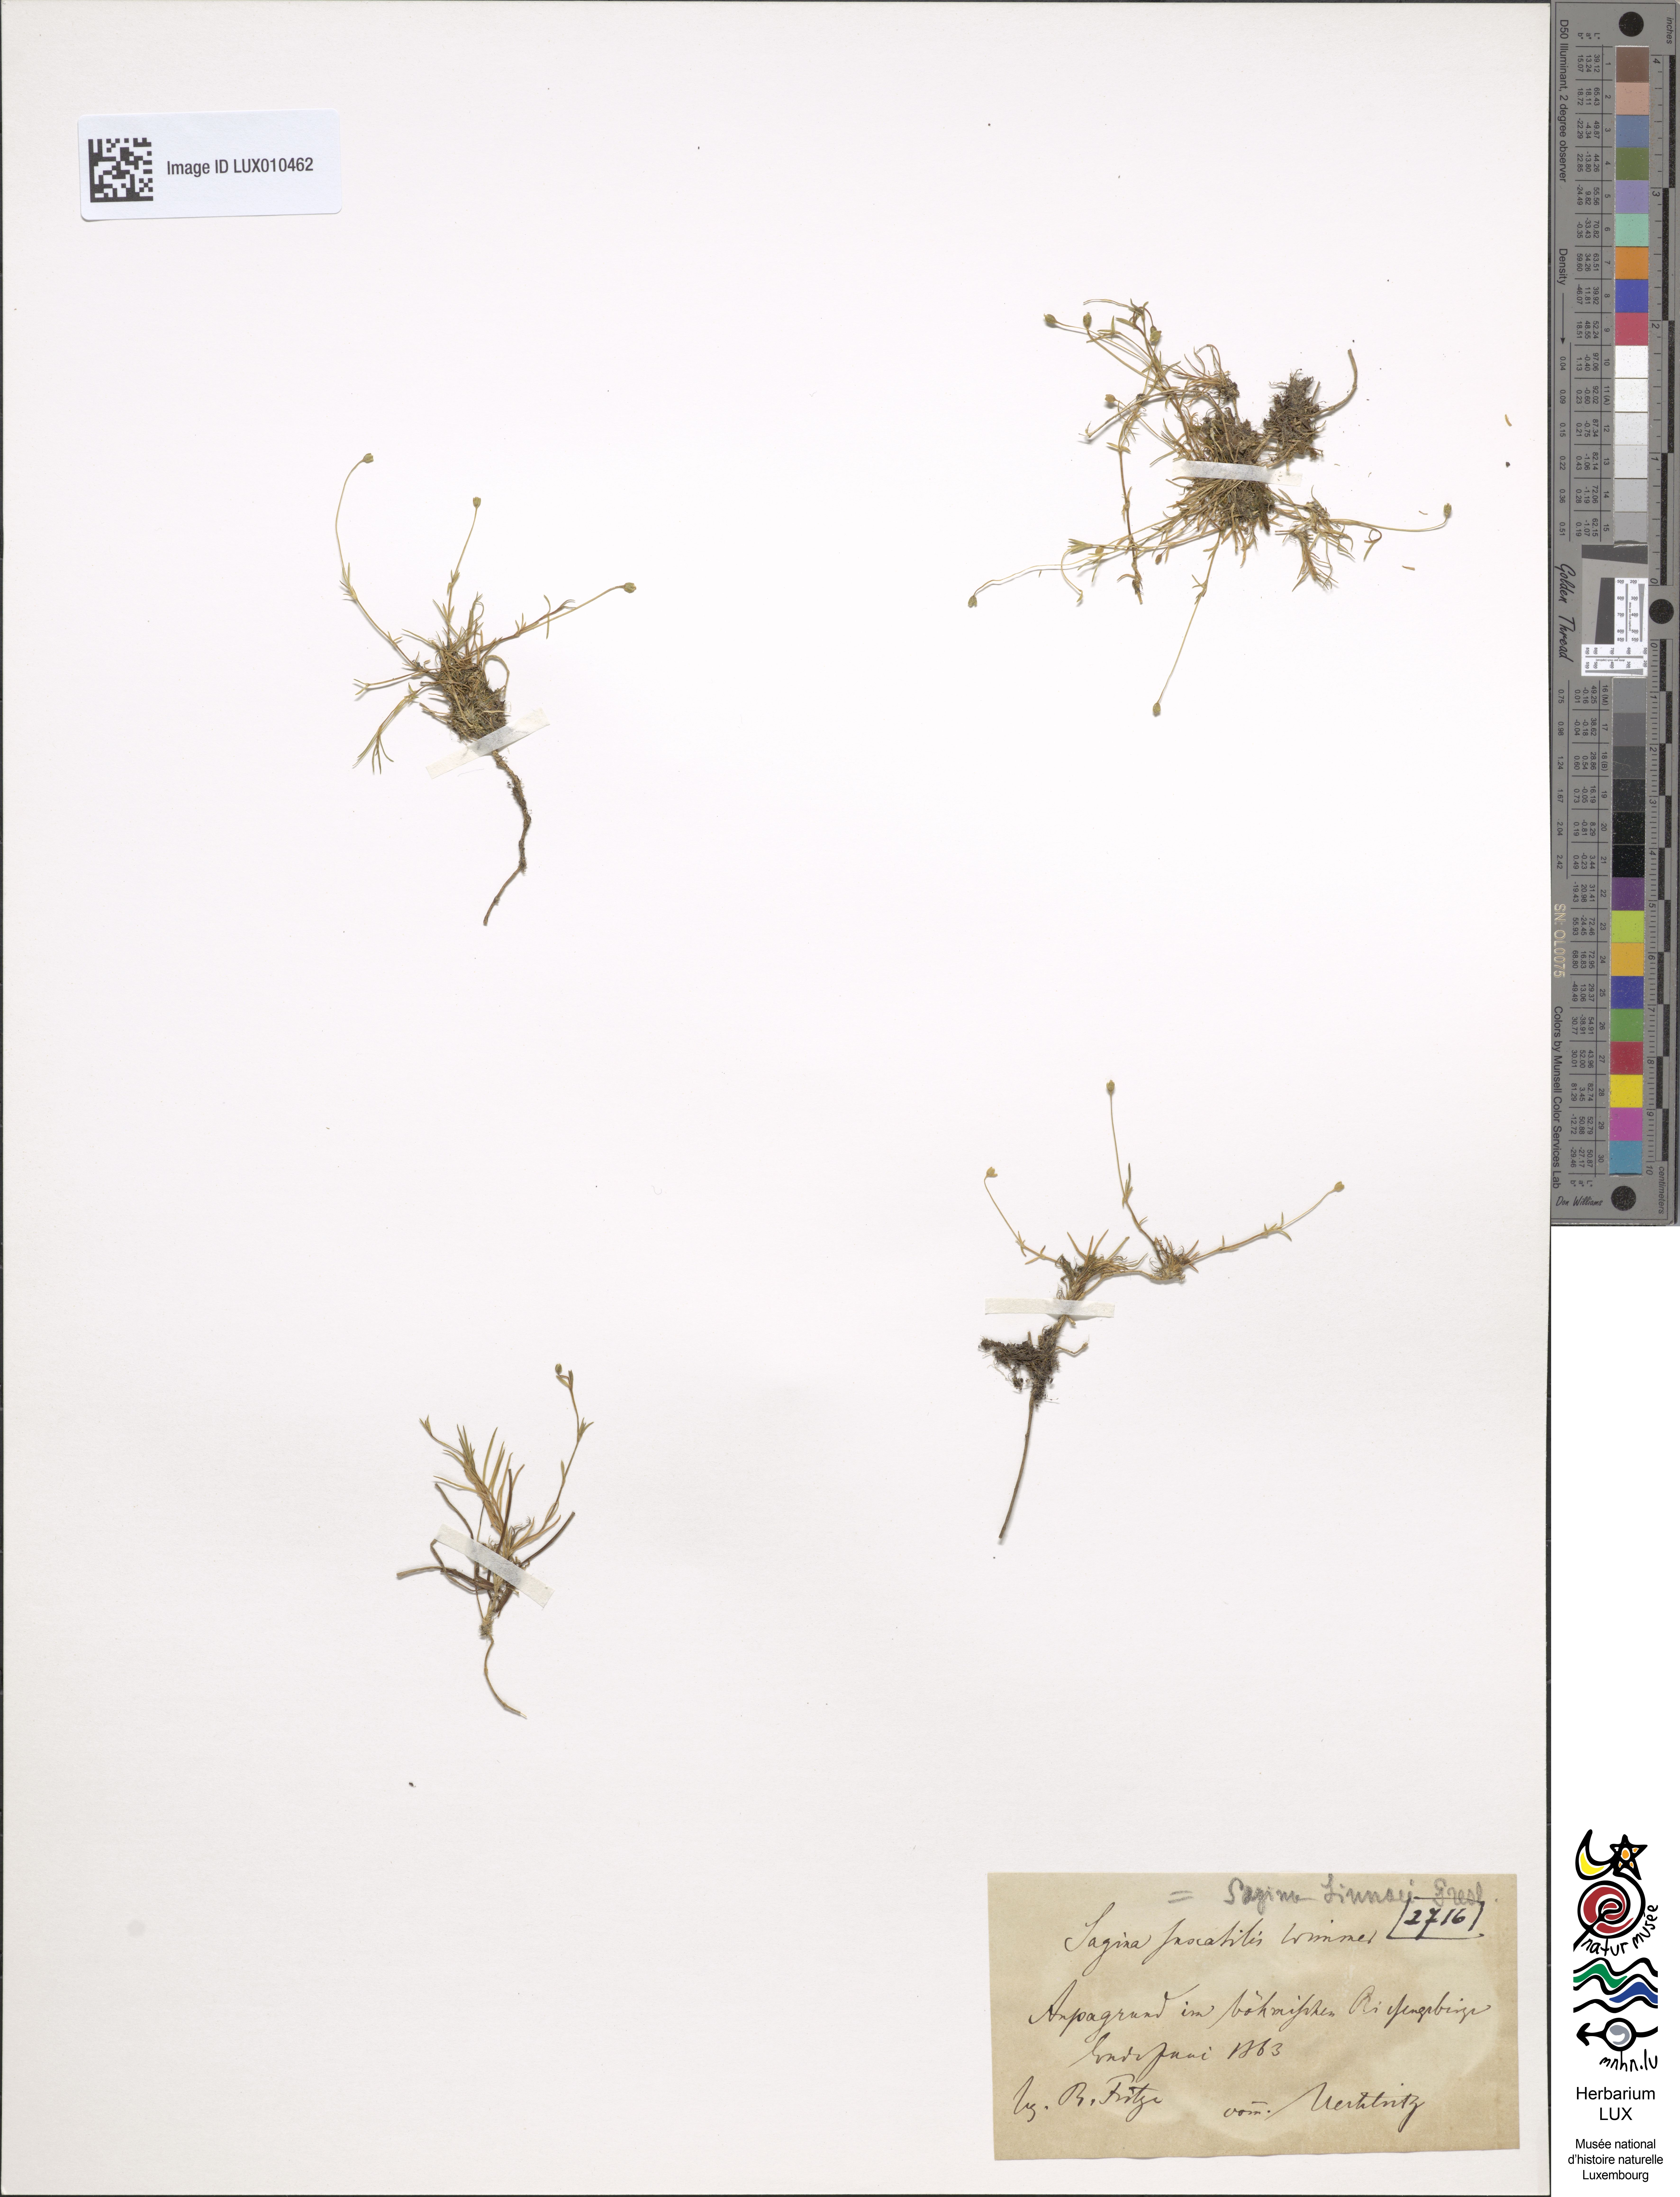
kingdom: Plantae
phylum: Tracheophyta
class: Magnoliopsida
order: Caryophyllales
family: Caryophyllaceae
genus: Sagina
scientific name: Sagina saginoides
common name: Alpine pearlwort
